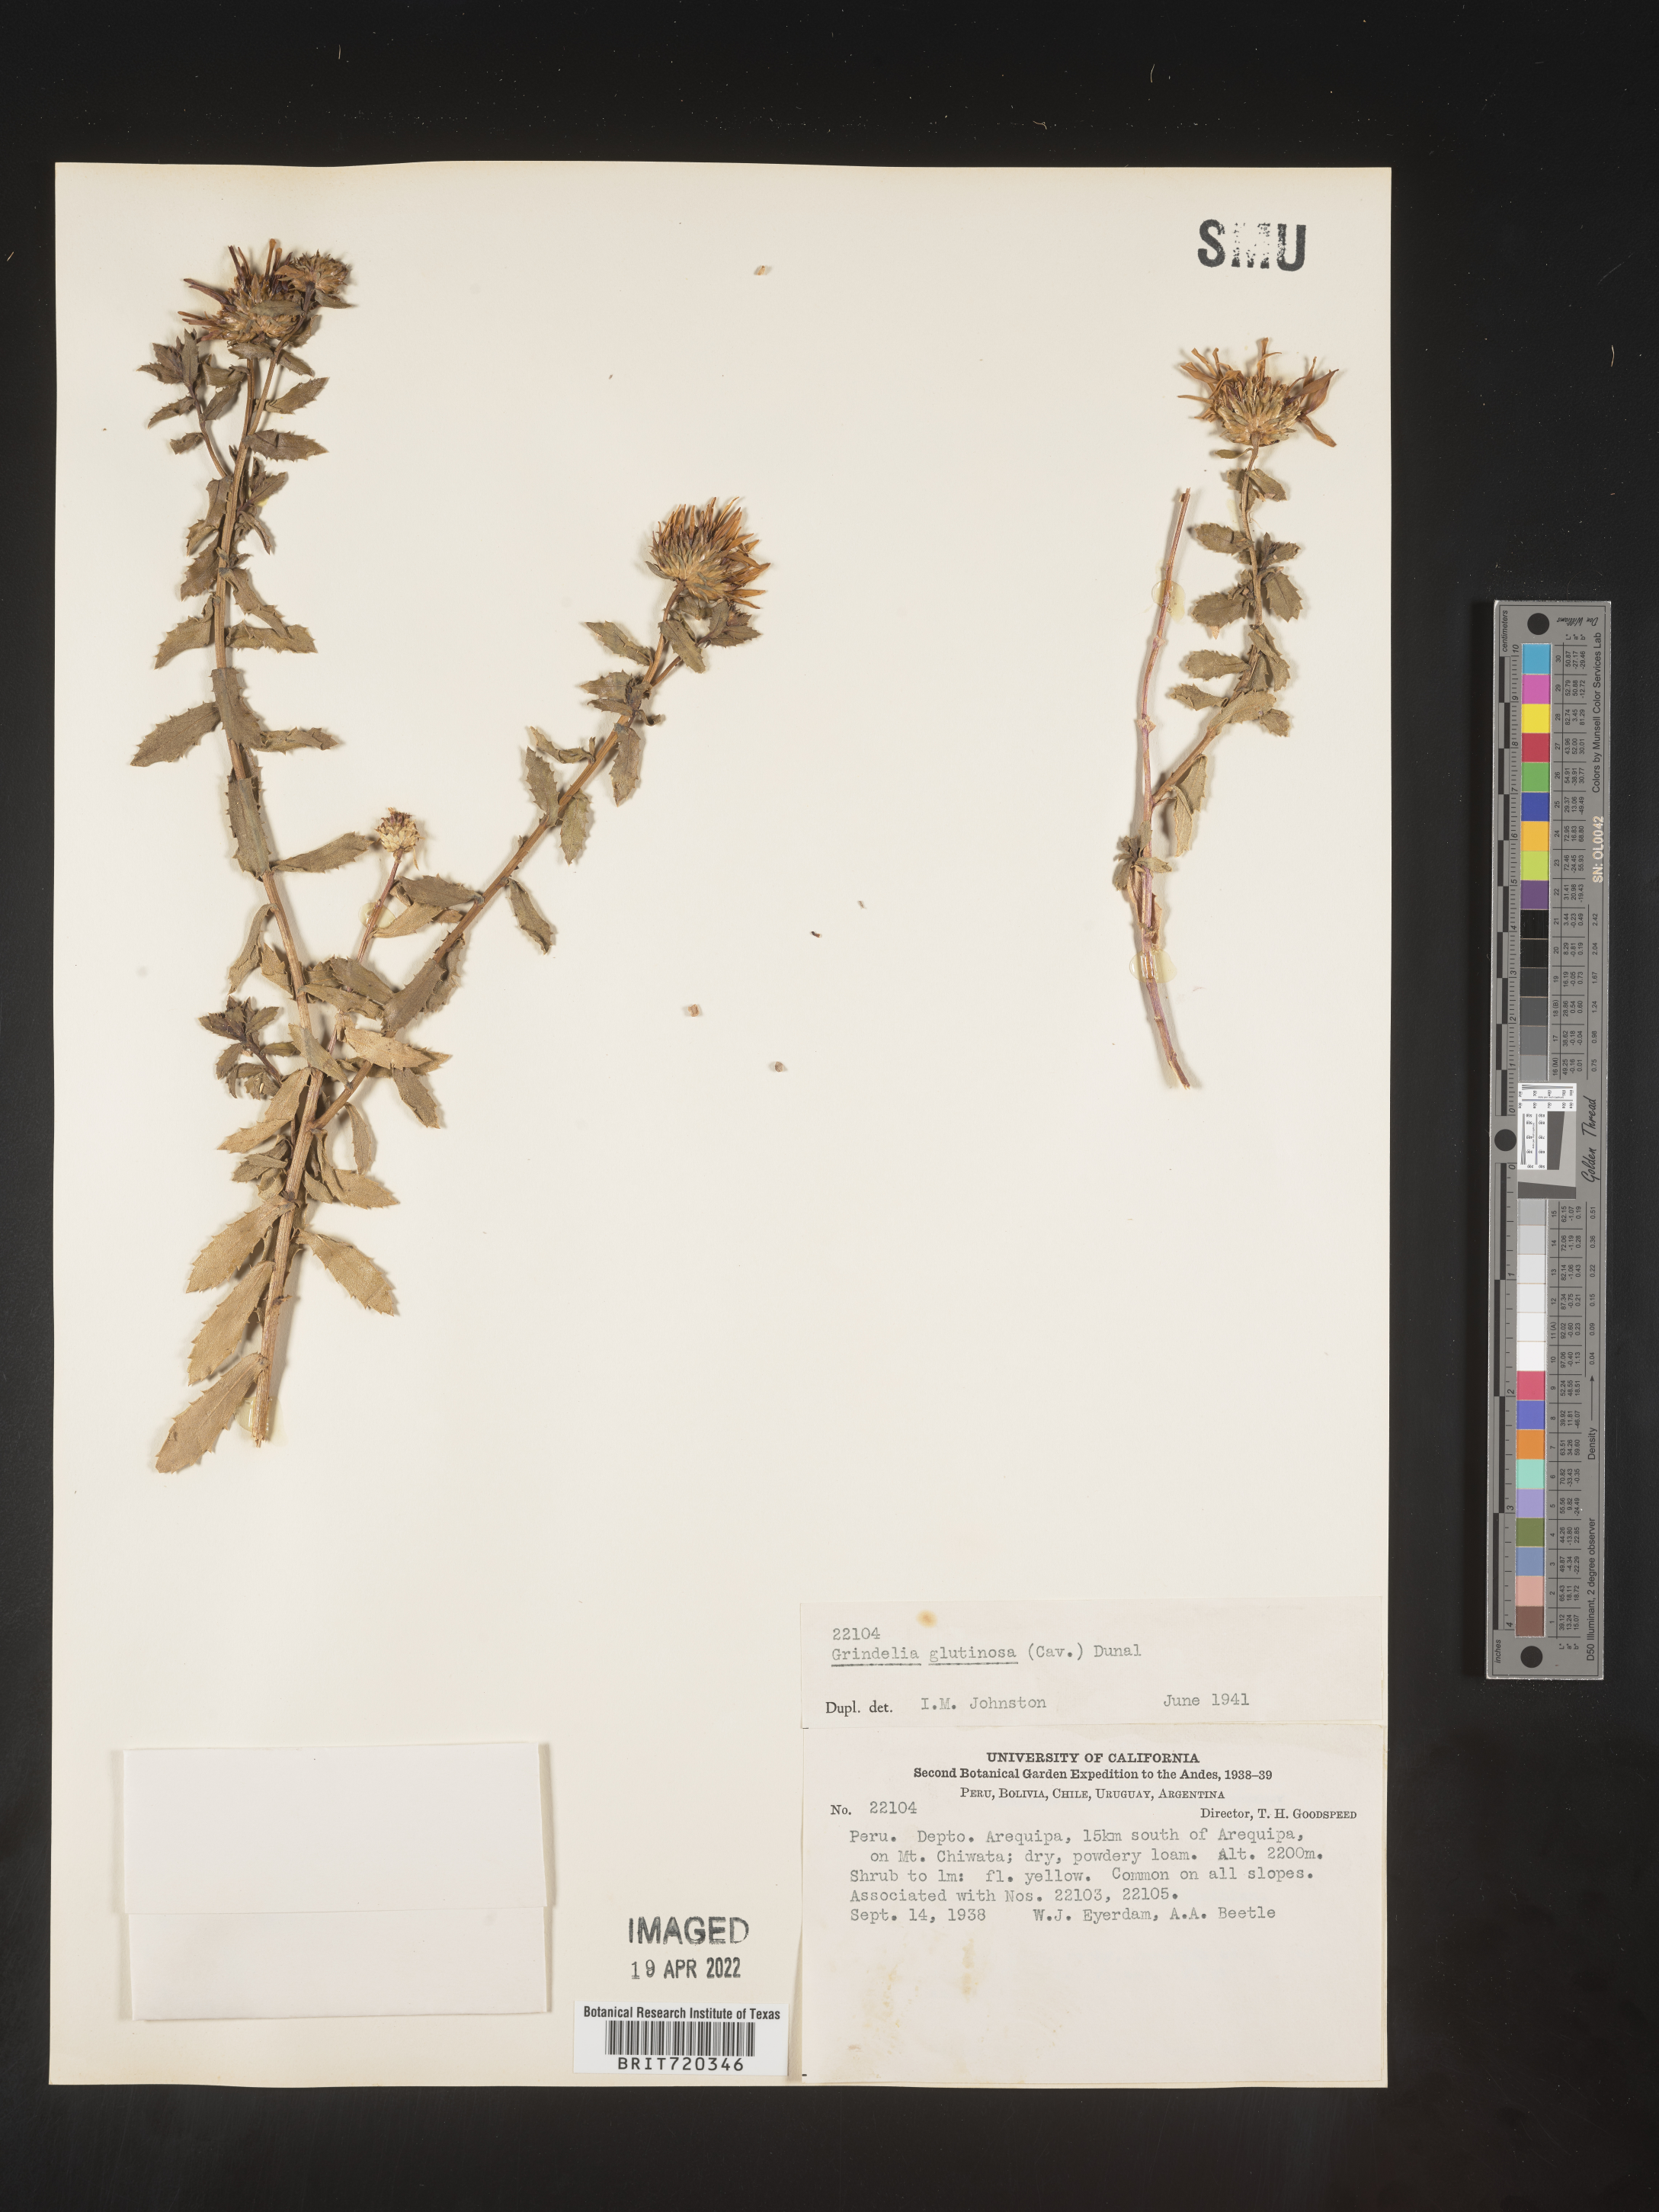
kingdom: Plantae
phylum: Tracheophyta
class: Magnoliopsida
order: Asterales
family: Asteraceae
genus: Grindelia
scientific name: Grindelia
